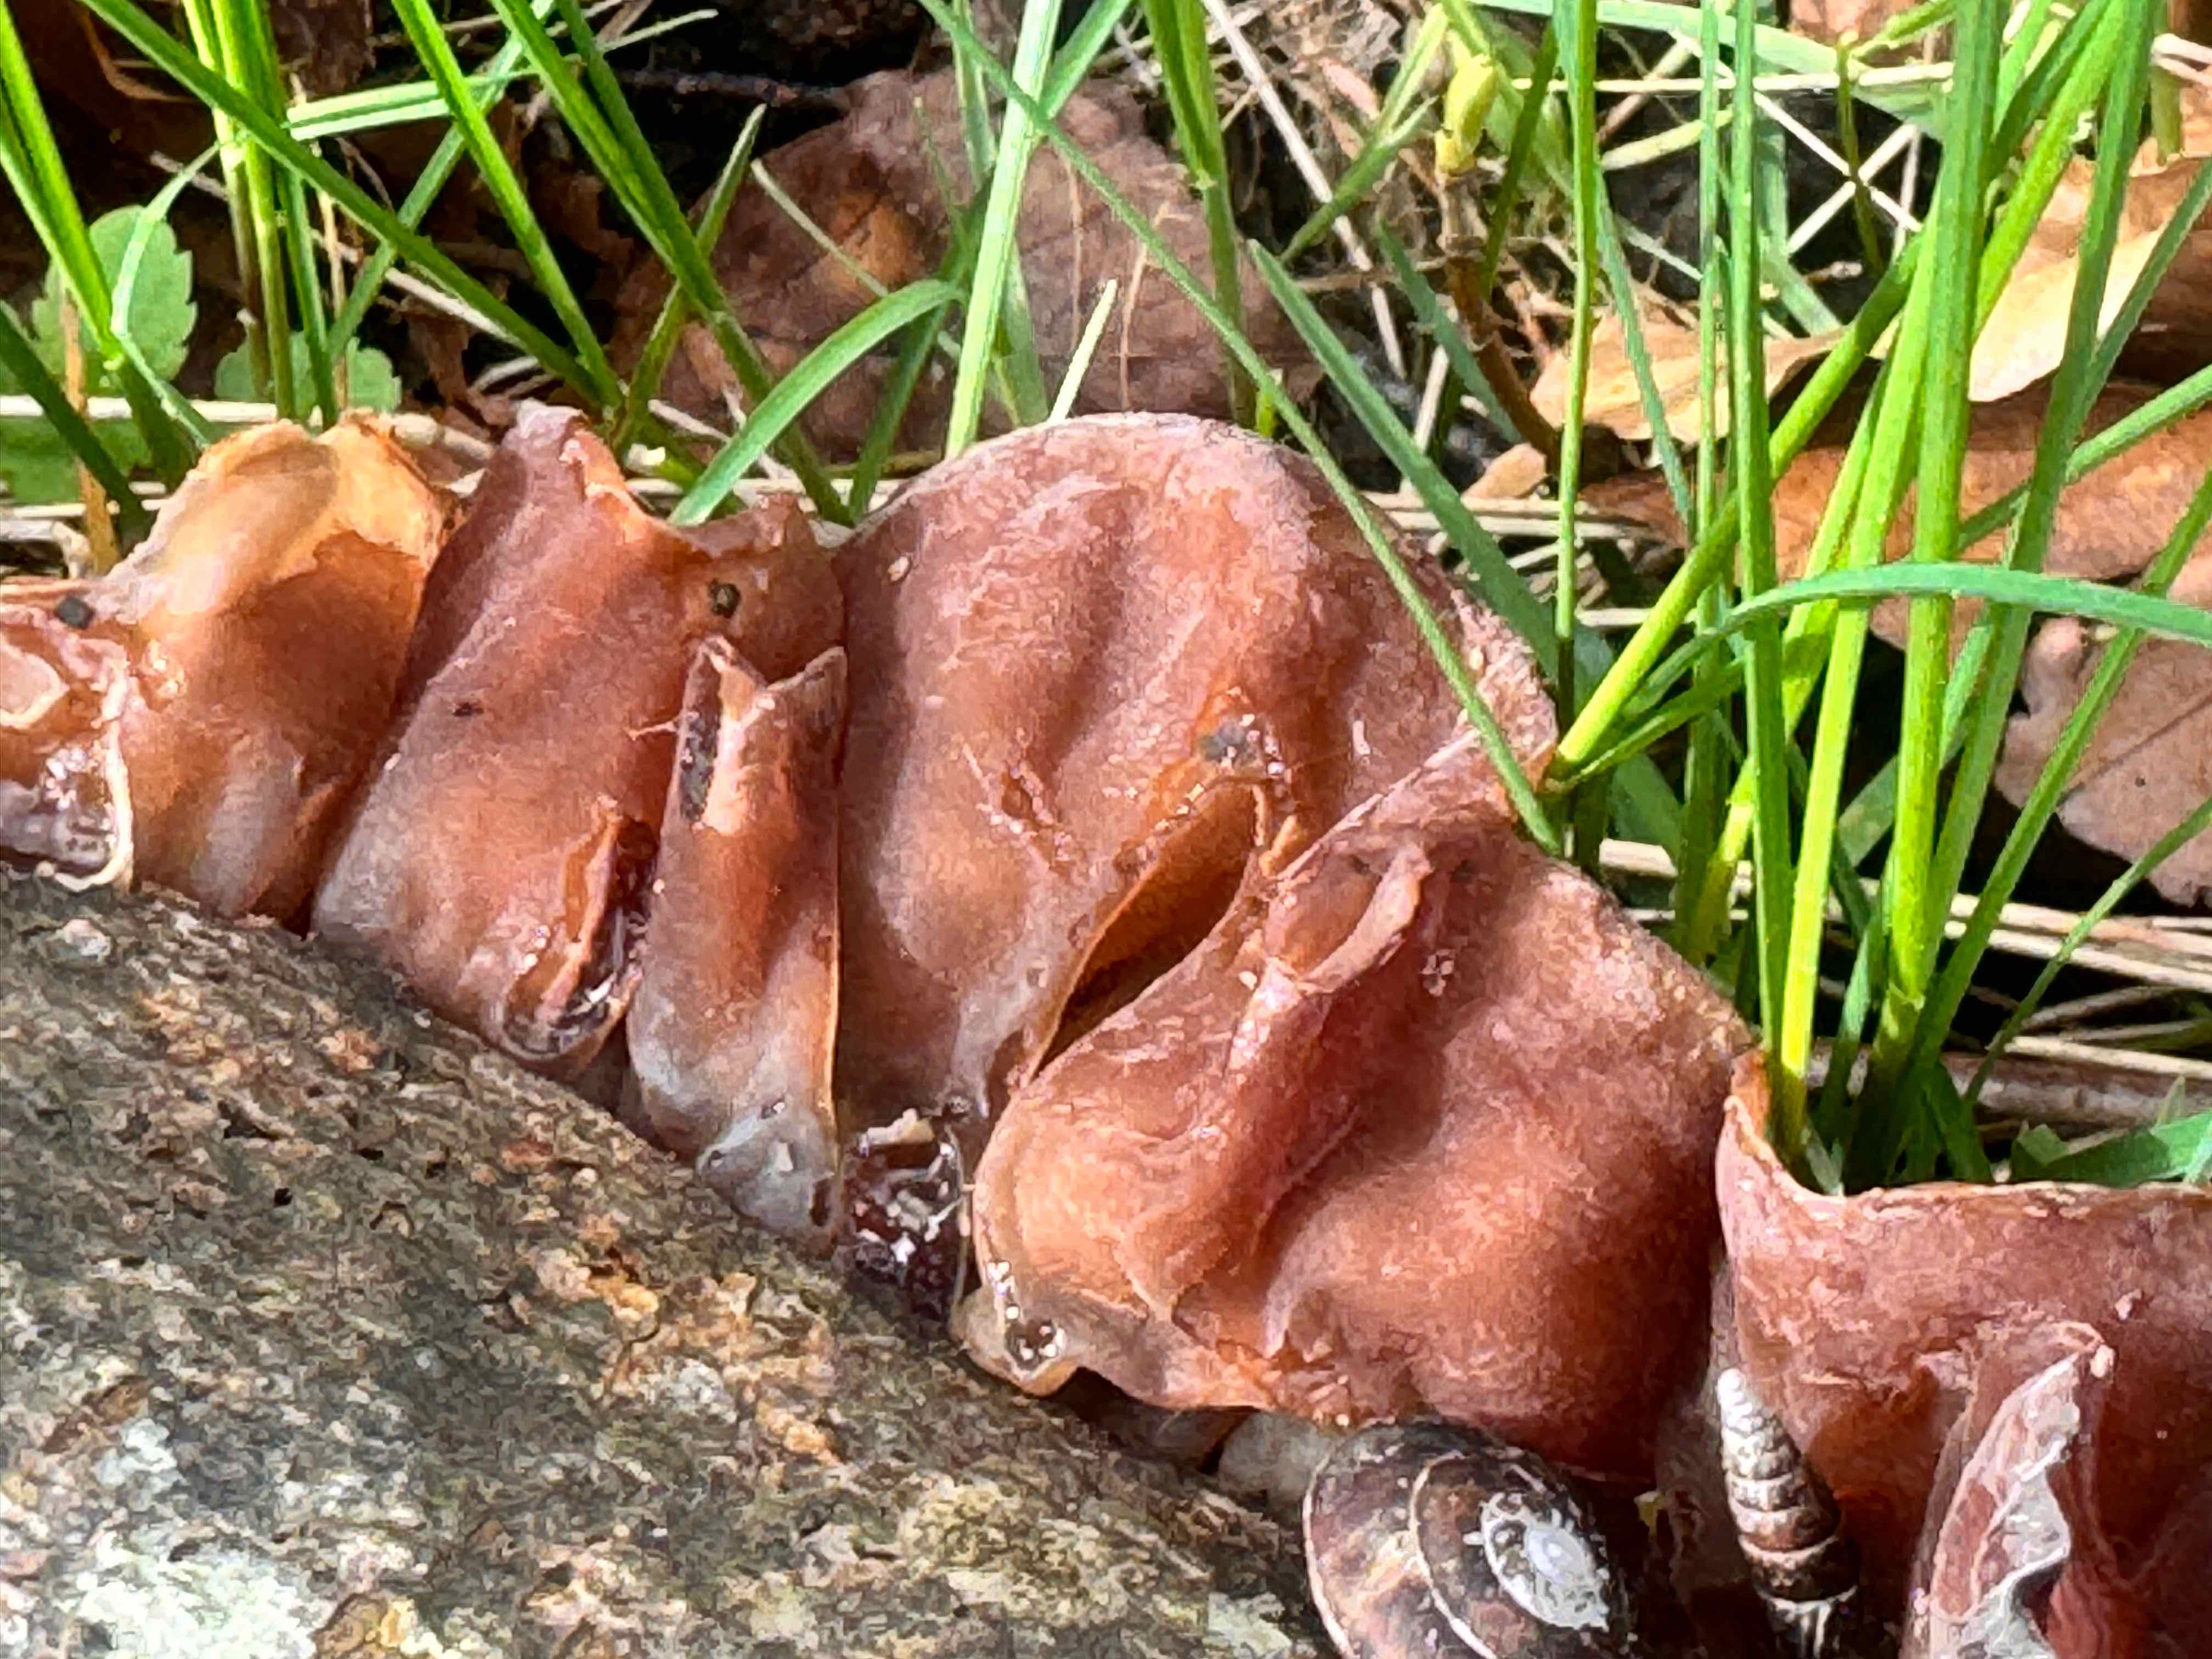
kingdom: Fungi
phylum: Basidiomycota
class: Agaricomycetes
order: Auriculariales
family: Auriculariaceae
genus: Auricularia
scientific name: Auricularia auricula-judae
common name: almindelig judasøre
